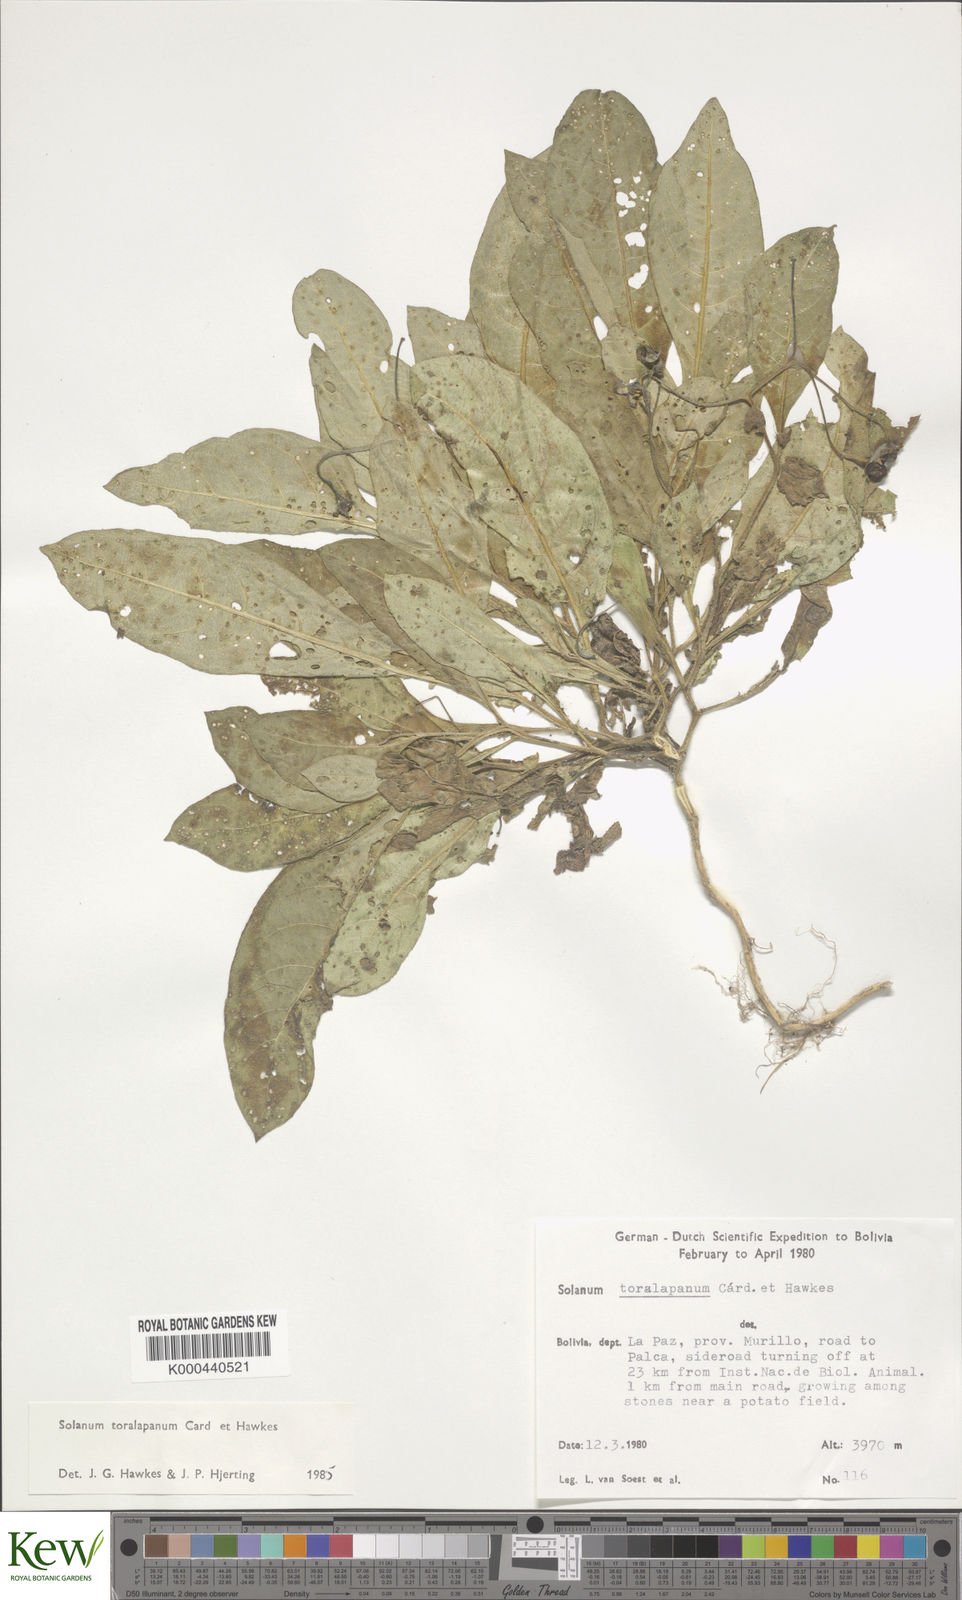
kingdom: Plantae
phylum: Tracheophyta
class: Magnoliopsida
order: Solanales
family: Solanaceae
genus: Solanum
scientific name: Solanum boliviense
